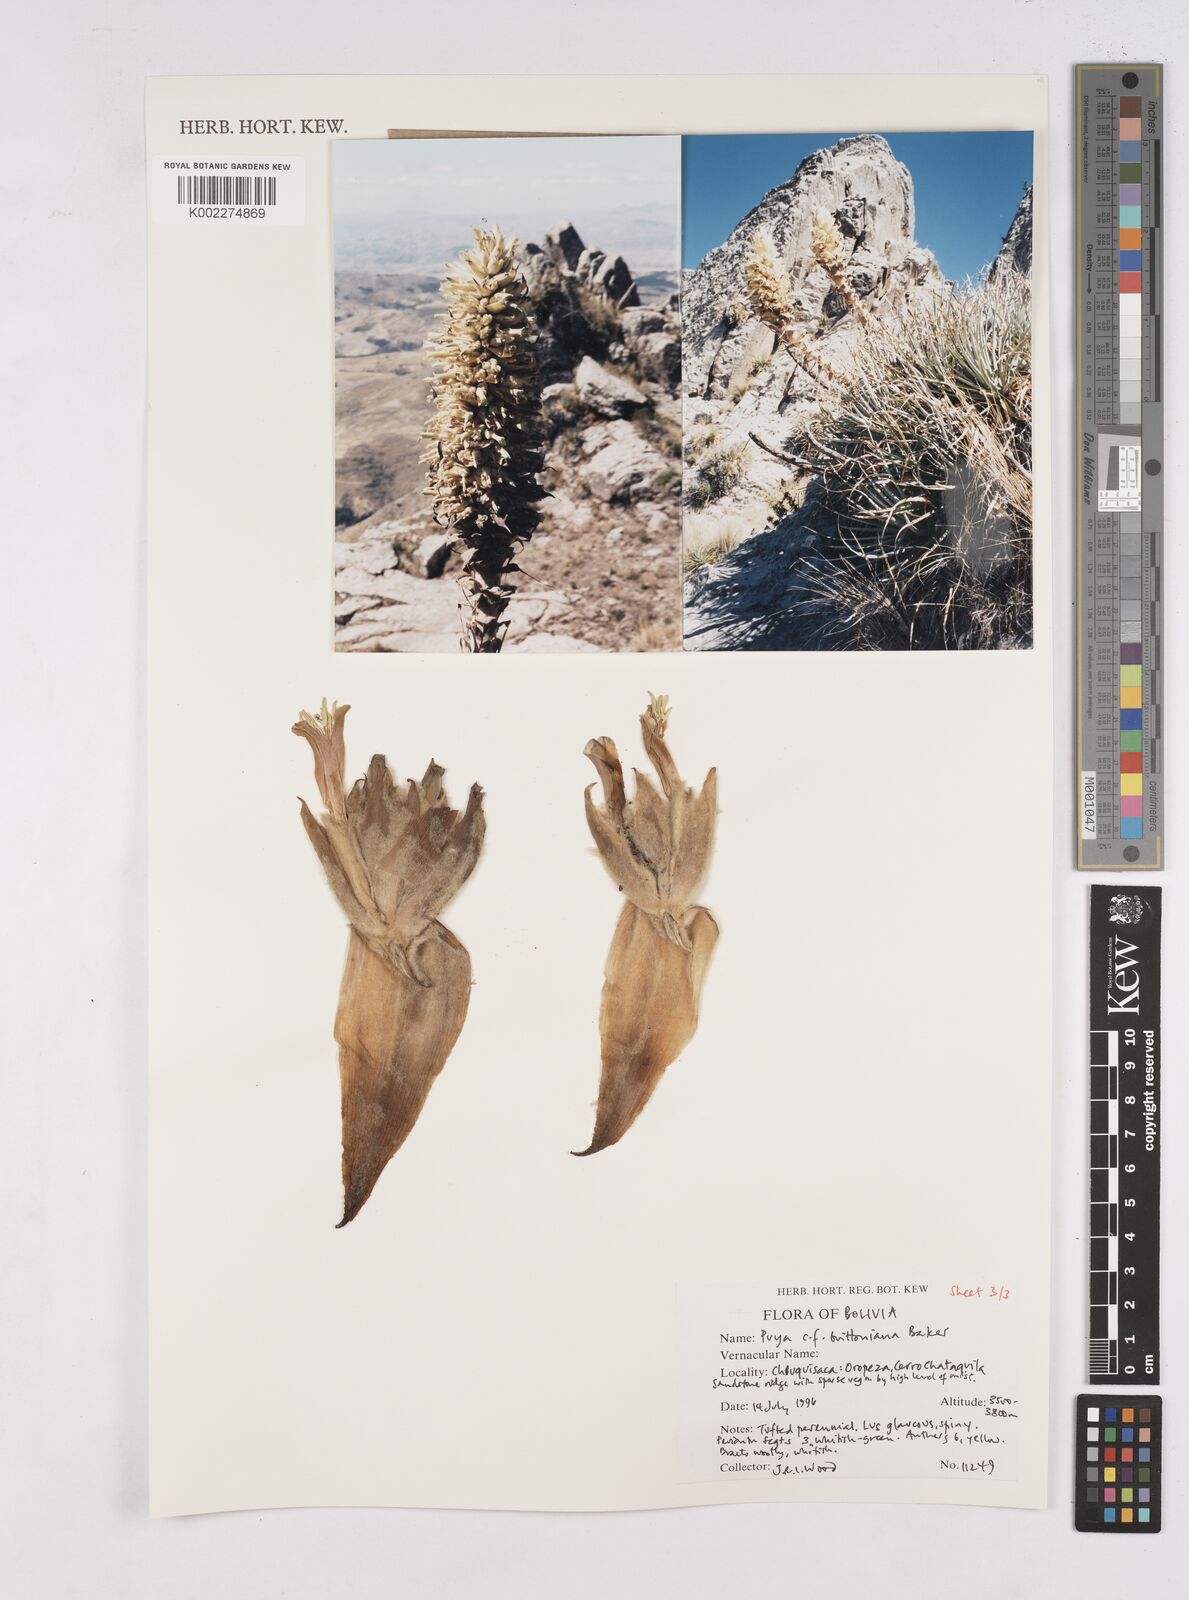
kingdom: Plantae
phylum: Tracheophyta
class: Liliopsida
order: Poales
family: Bromeliaceae
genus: Puya
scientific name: Puya brittoniana
